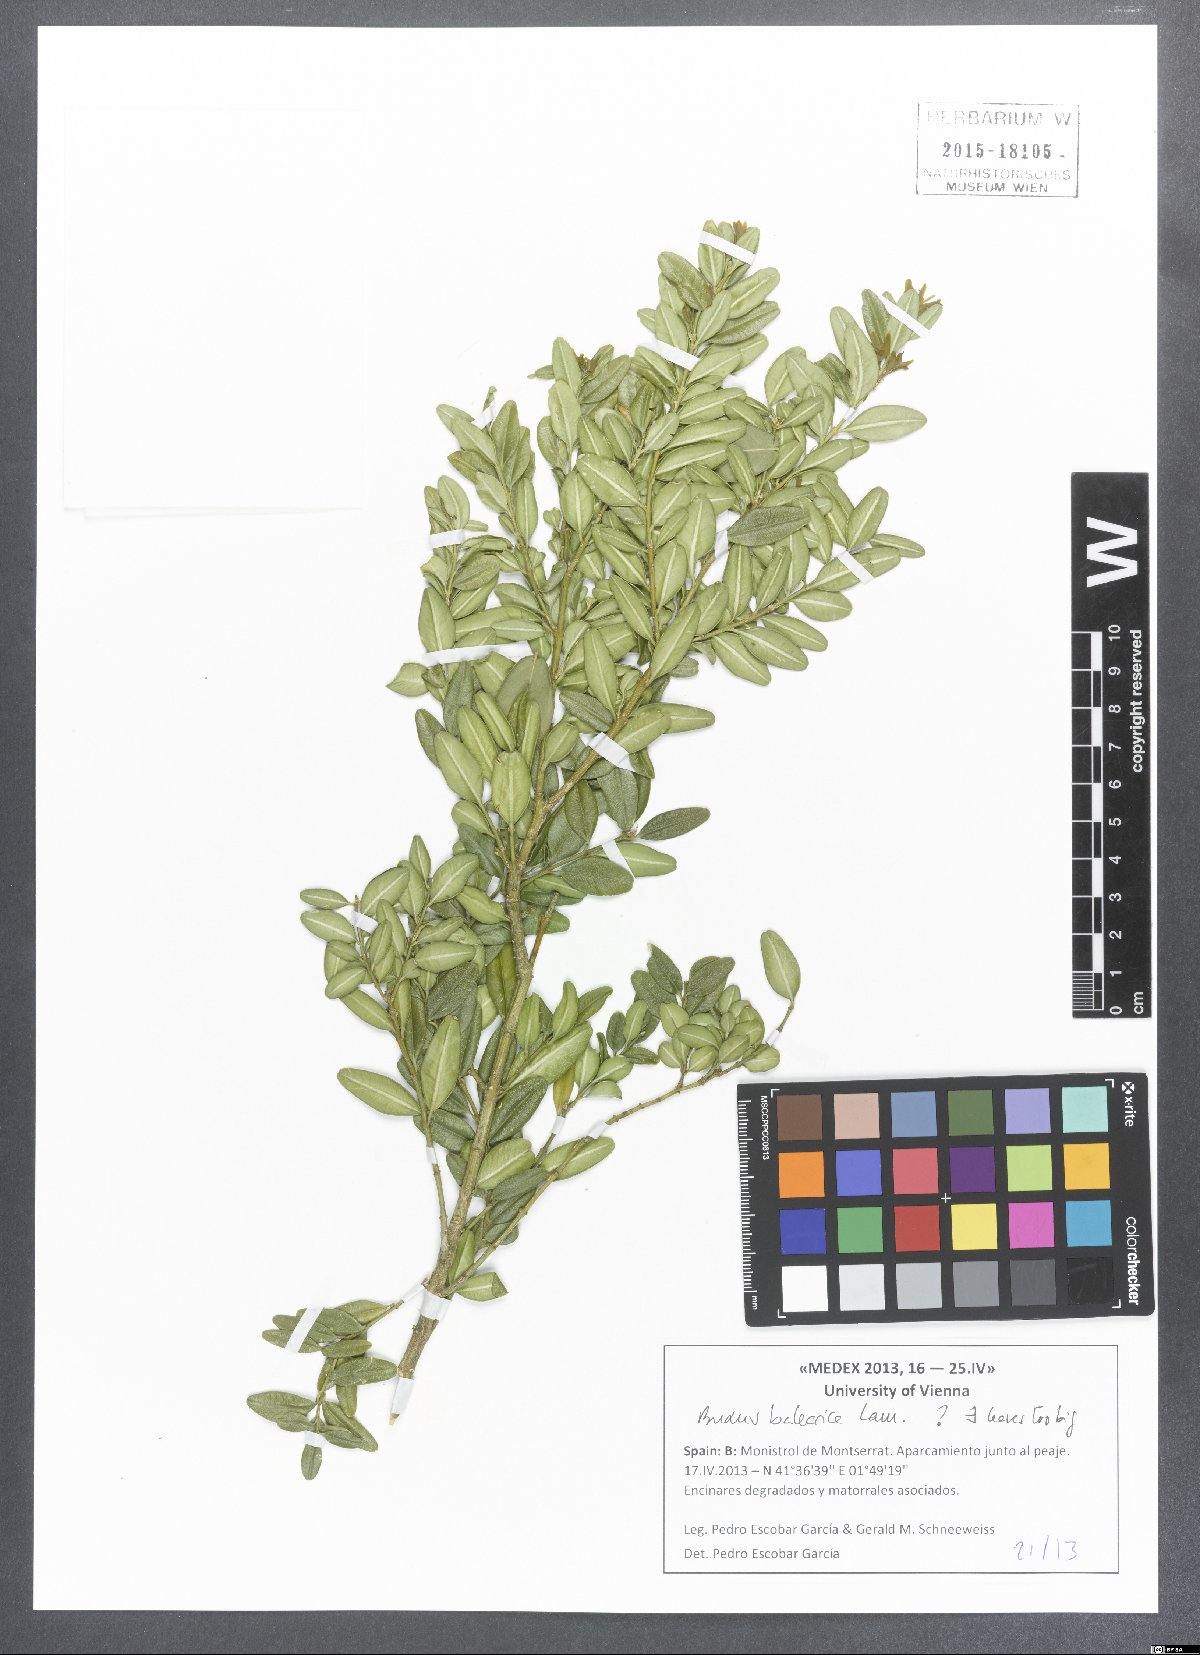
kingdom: Plantae
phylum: Tracheophyta
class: Magnoliopsida
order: Buxales
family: Buxaceae
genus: Buxus
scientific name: Buxus balearica
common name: Balearic box
